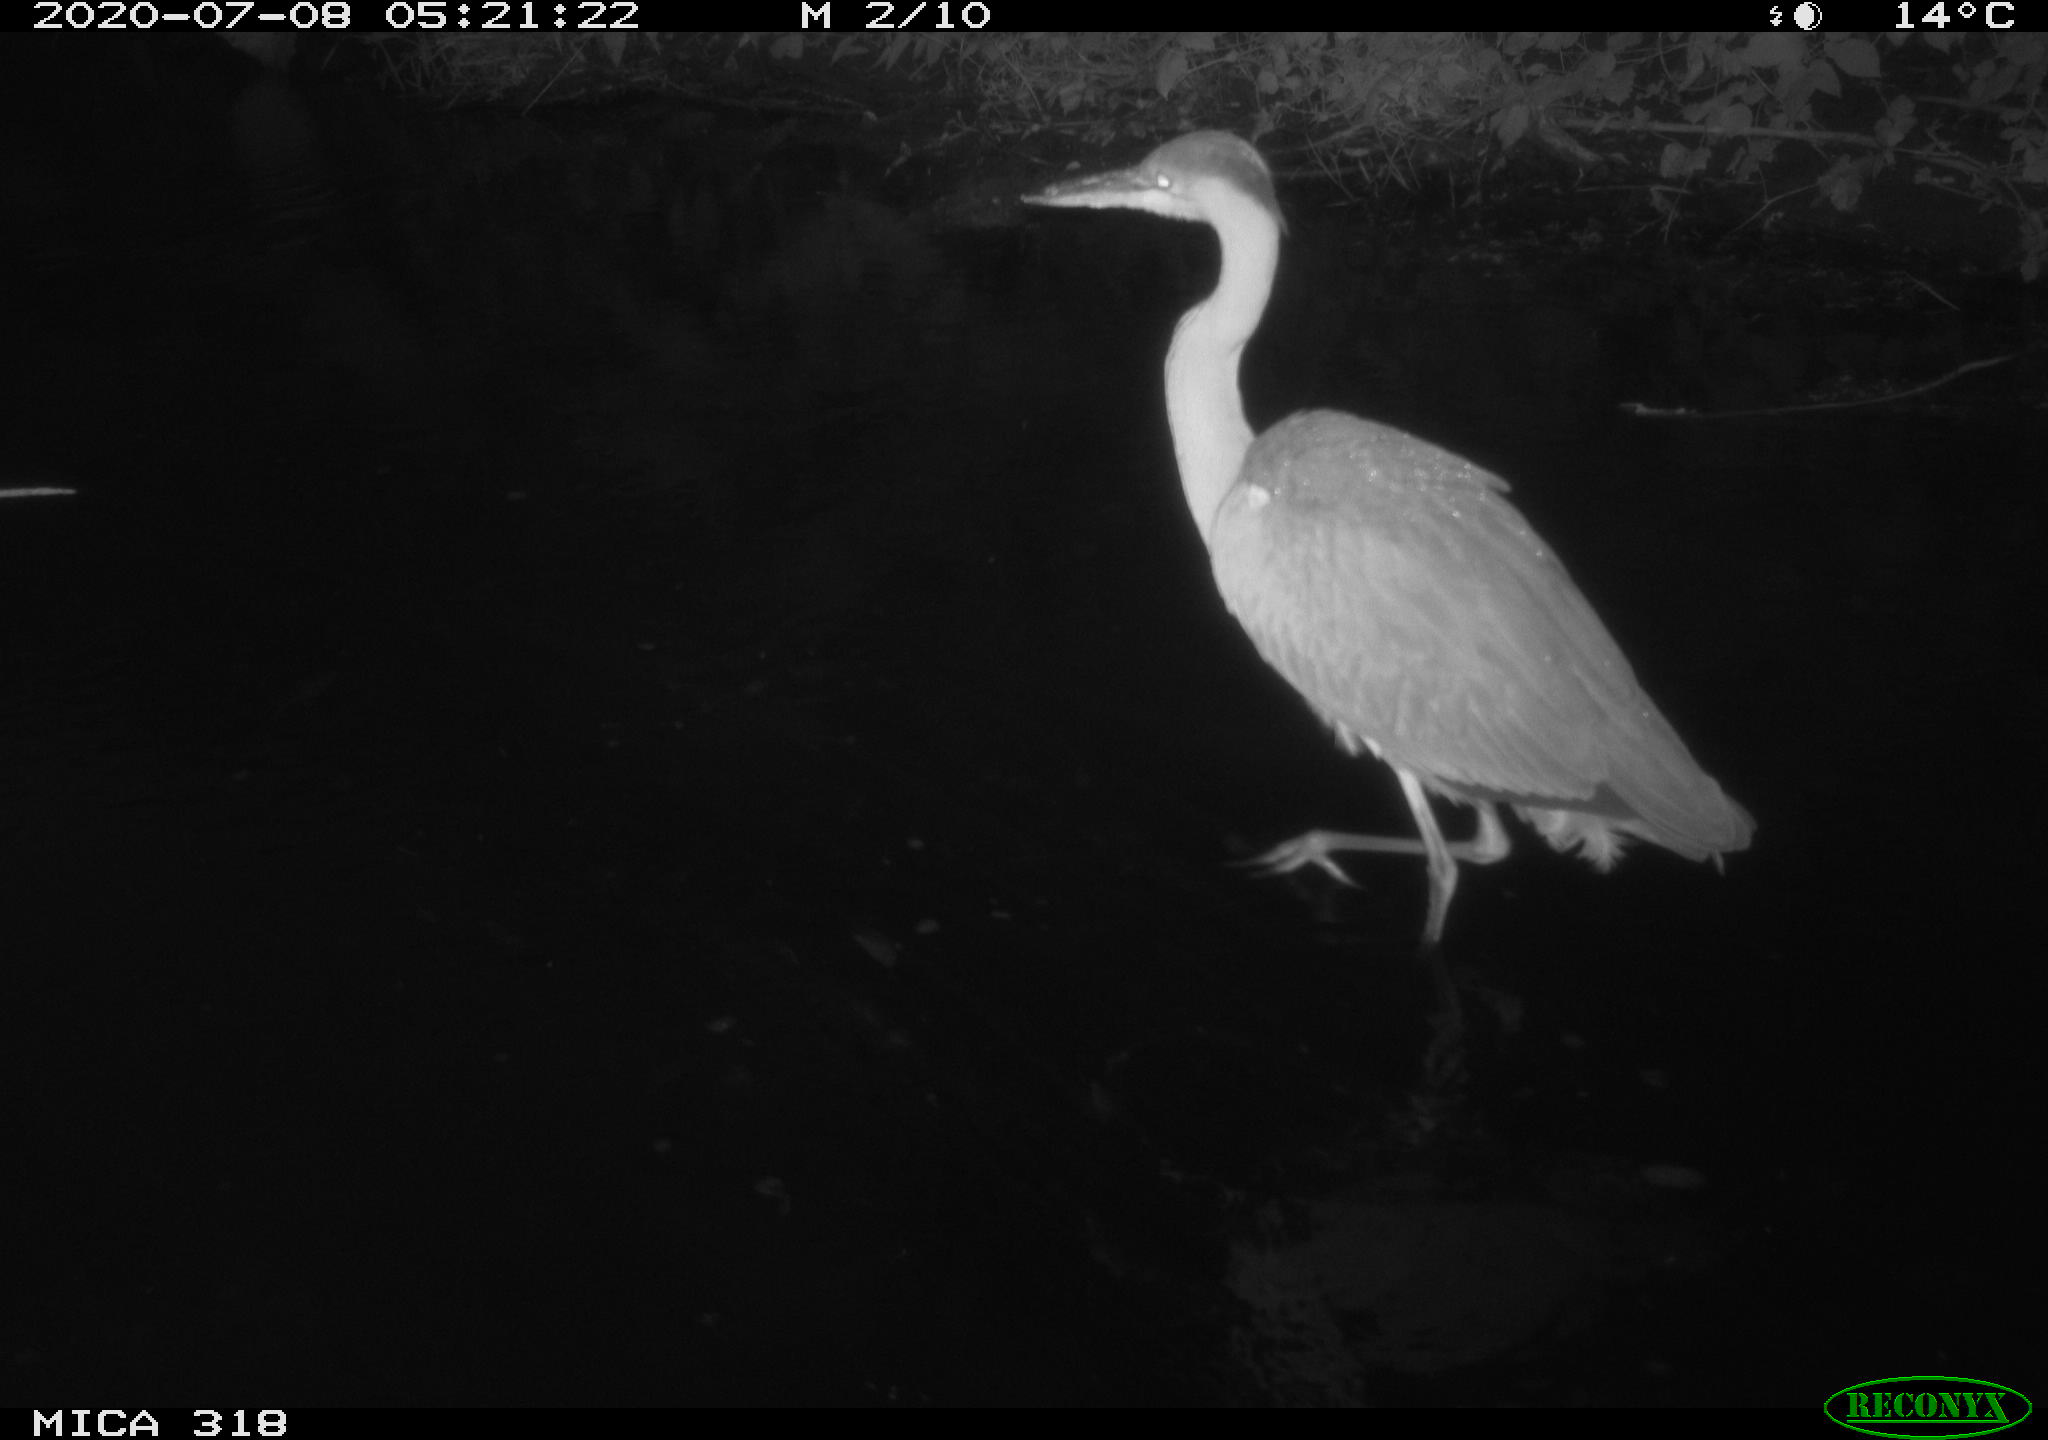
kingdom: Animalia
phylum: Chordata
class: Aves
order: Pelecaniformes
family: Ardeidae
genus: Ardea
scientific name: Ardea cinerea
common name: Grey heron
